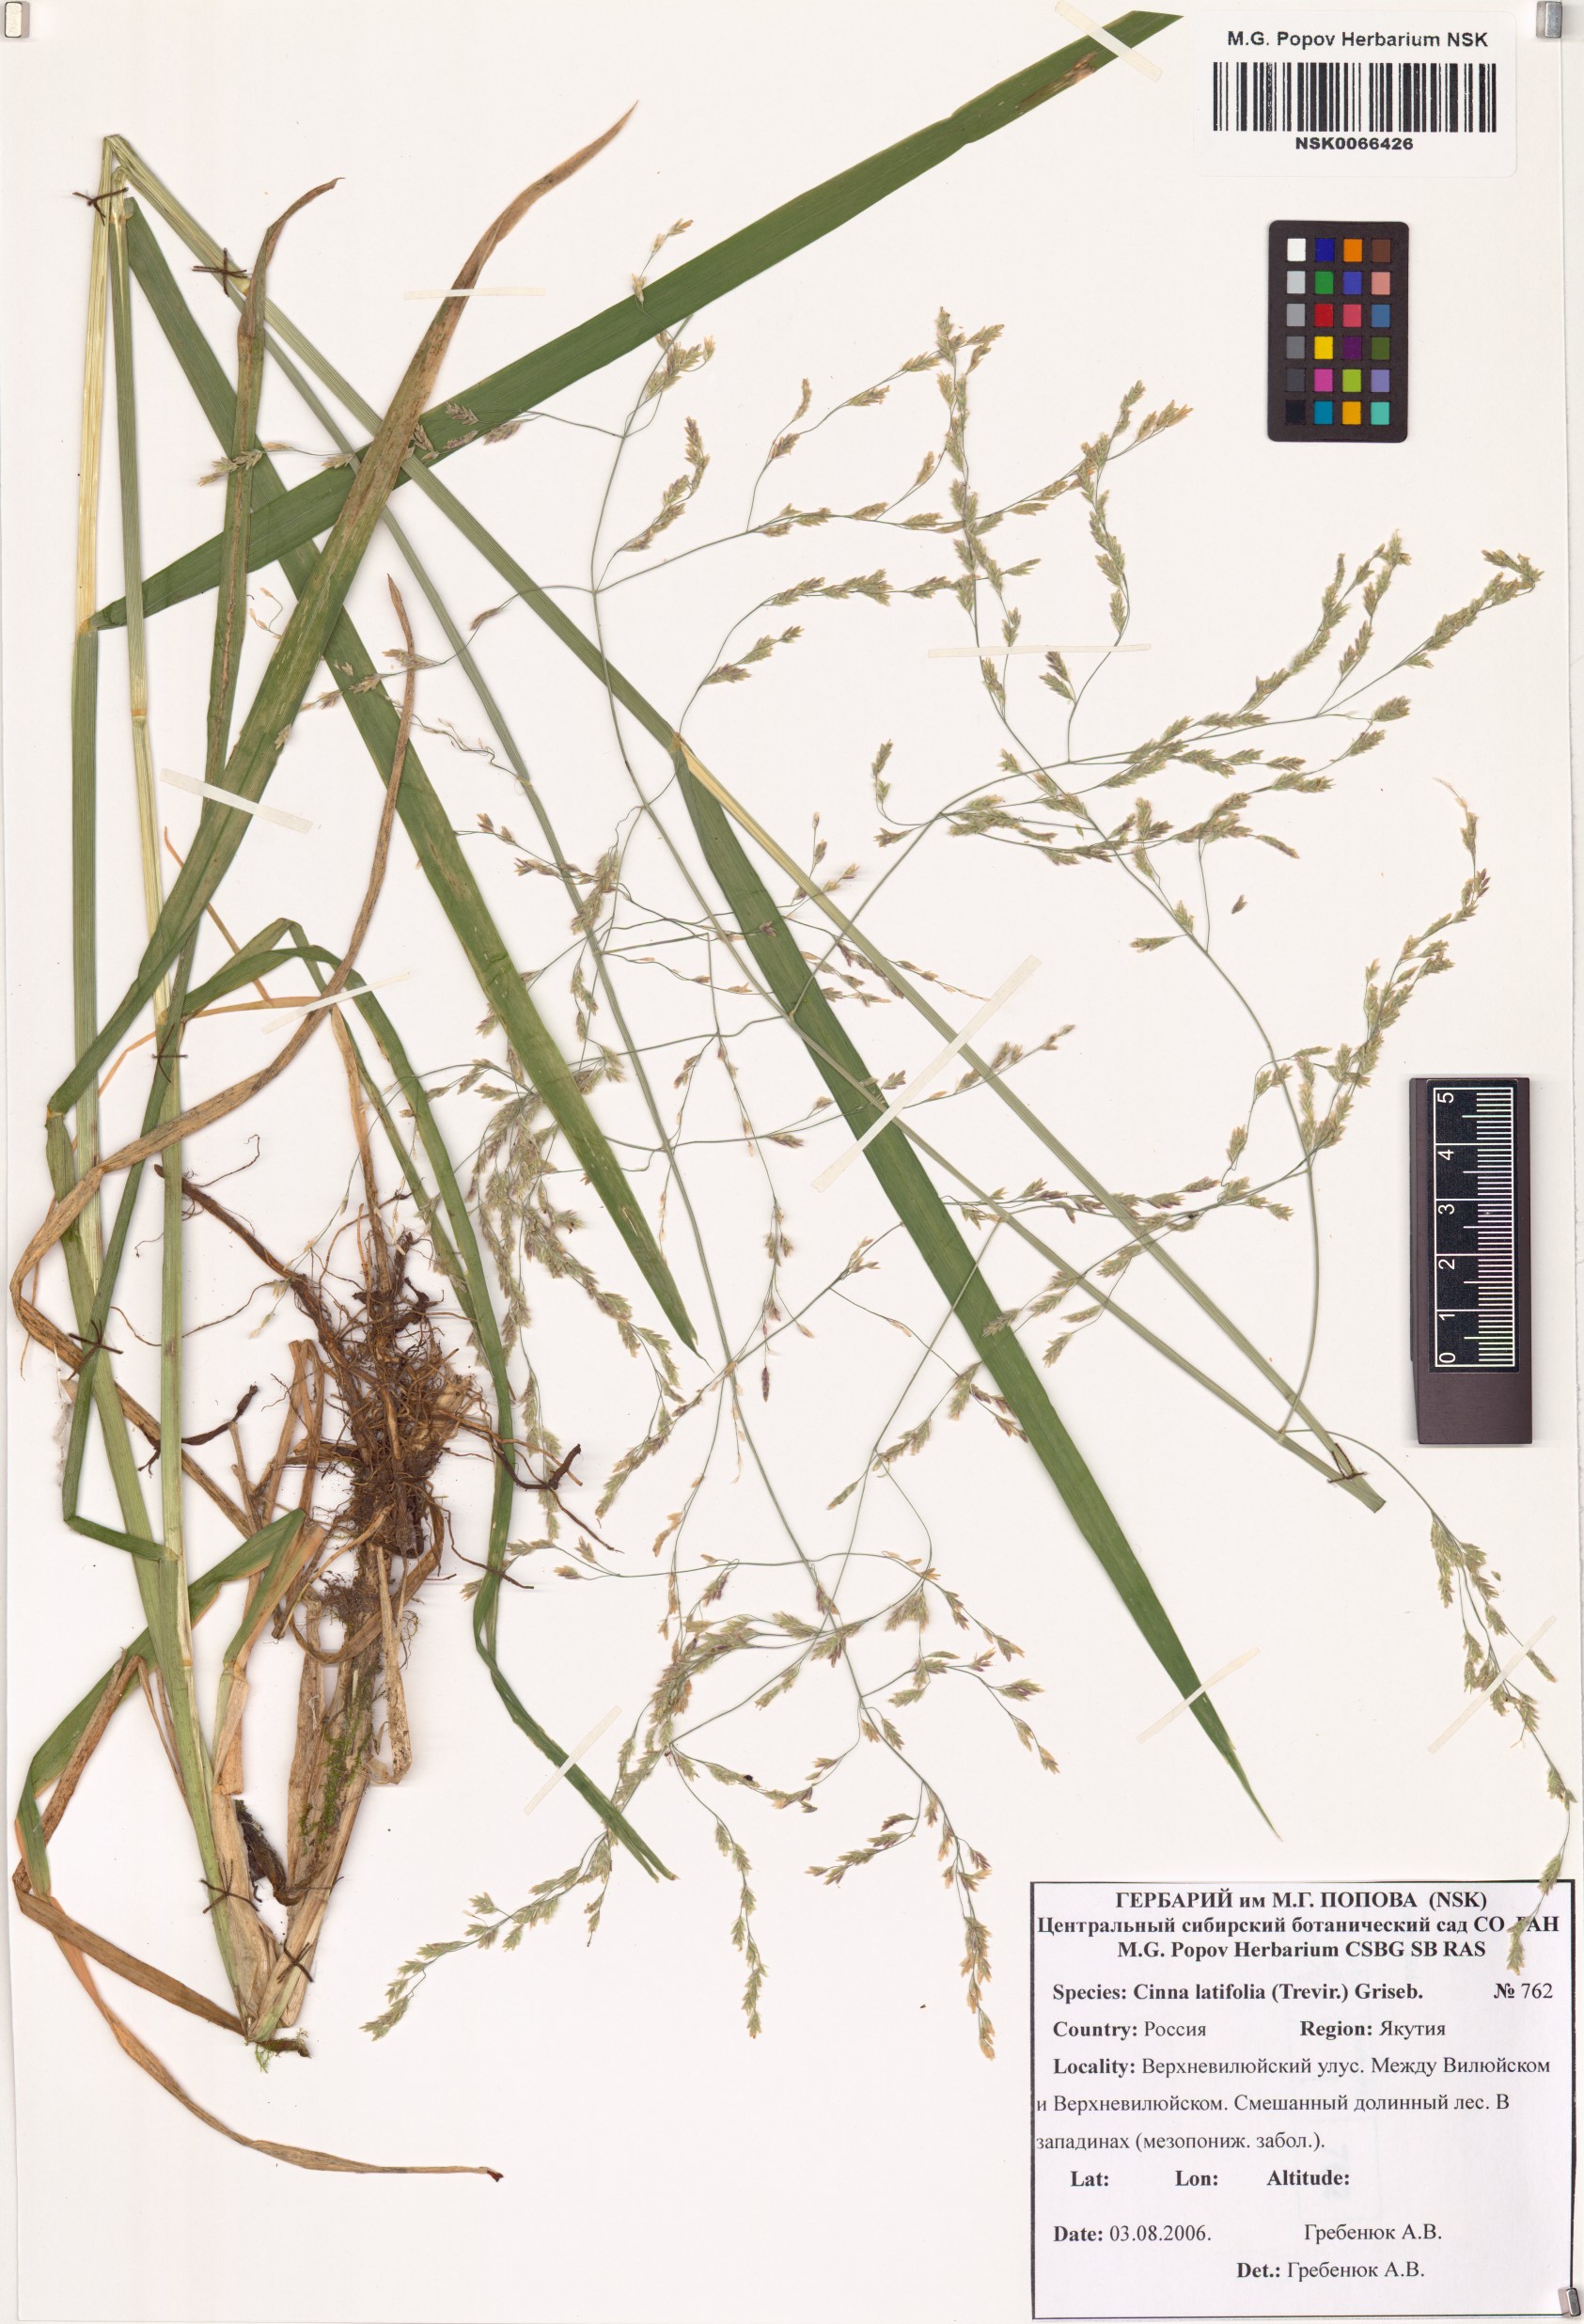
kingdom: Plantae
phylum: Tracheophyta
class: Liliopsida
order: Poales
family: Poaceae
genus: Cinna
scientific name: Cinna latifolia
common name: Drooping woodreed
